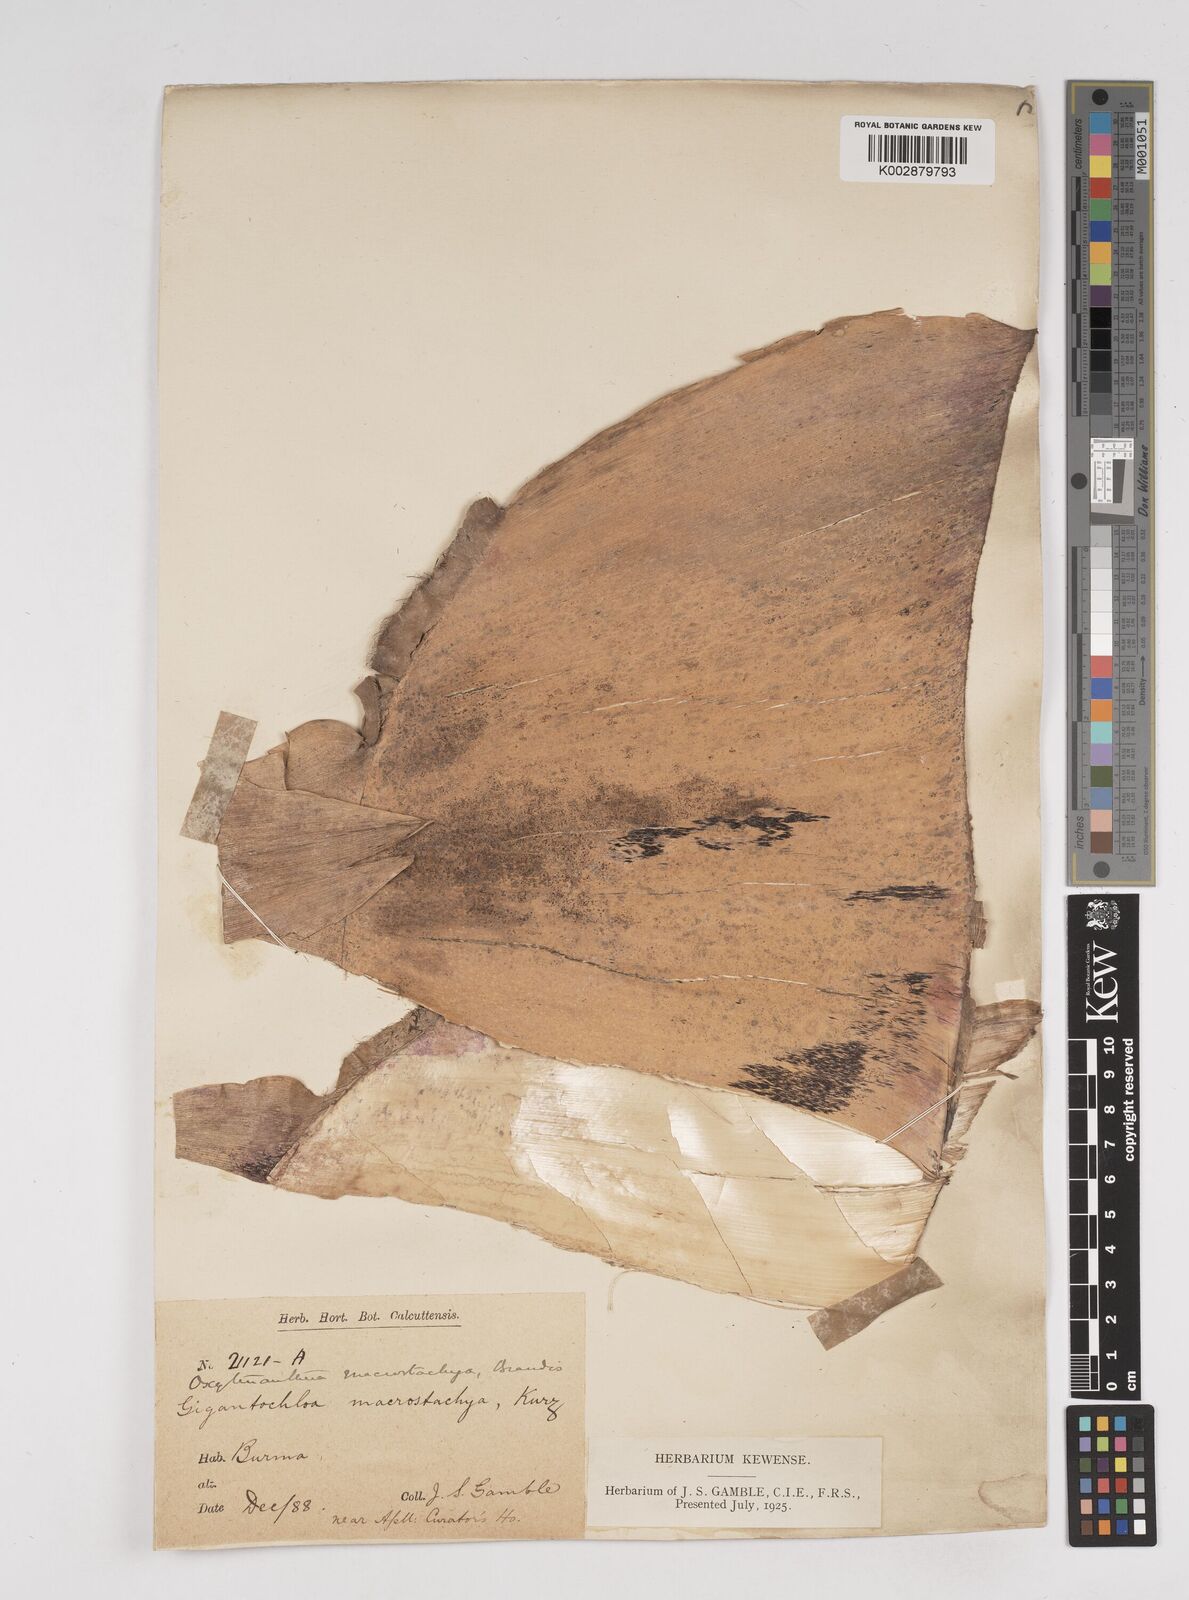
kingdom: Plantae
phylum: Tracheophyta
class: Liliopsida
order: Poales
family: Poaceae
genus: Gigantochloa
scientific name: Gigantochloa macrostachya
